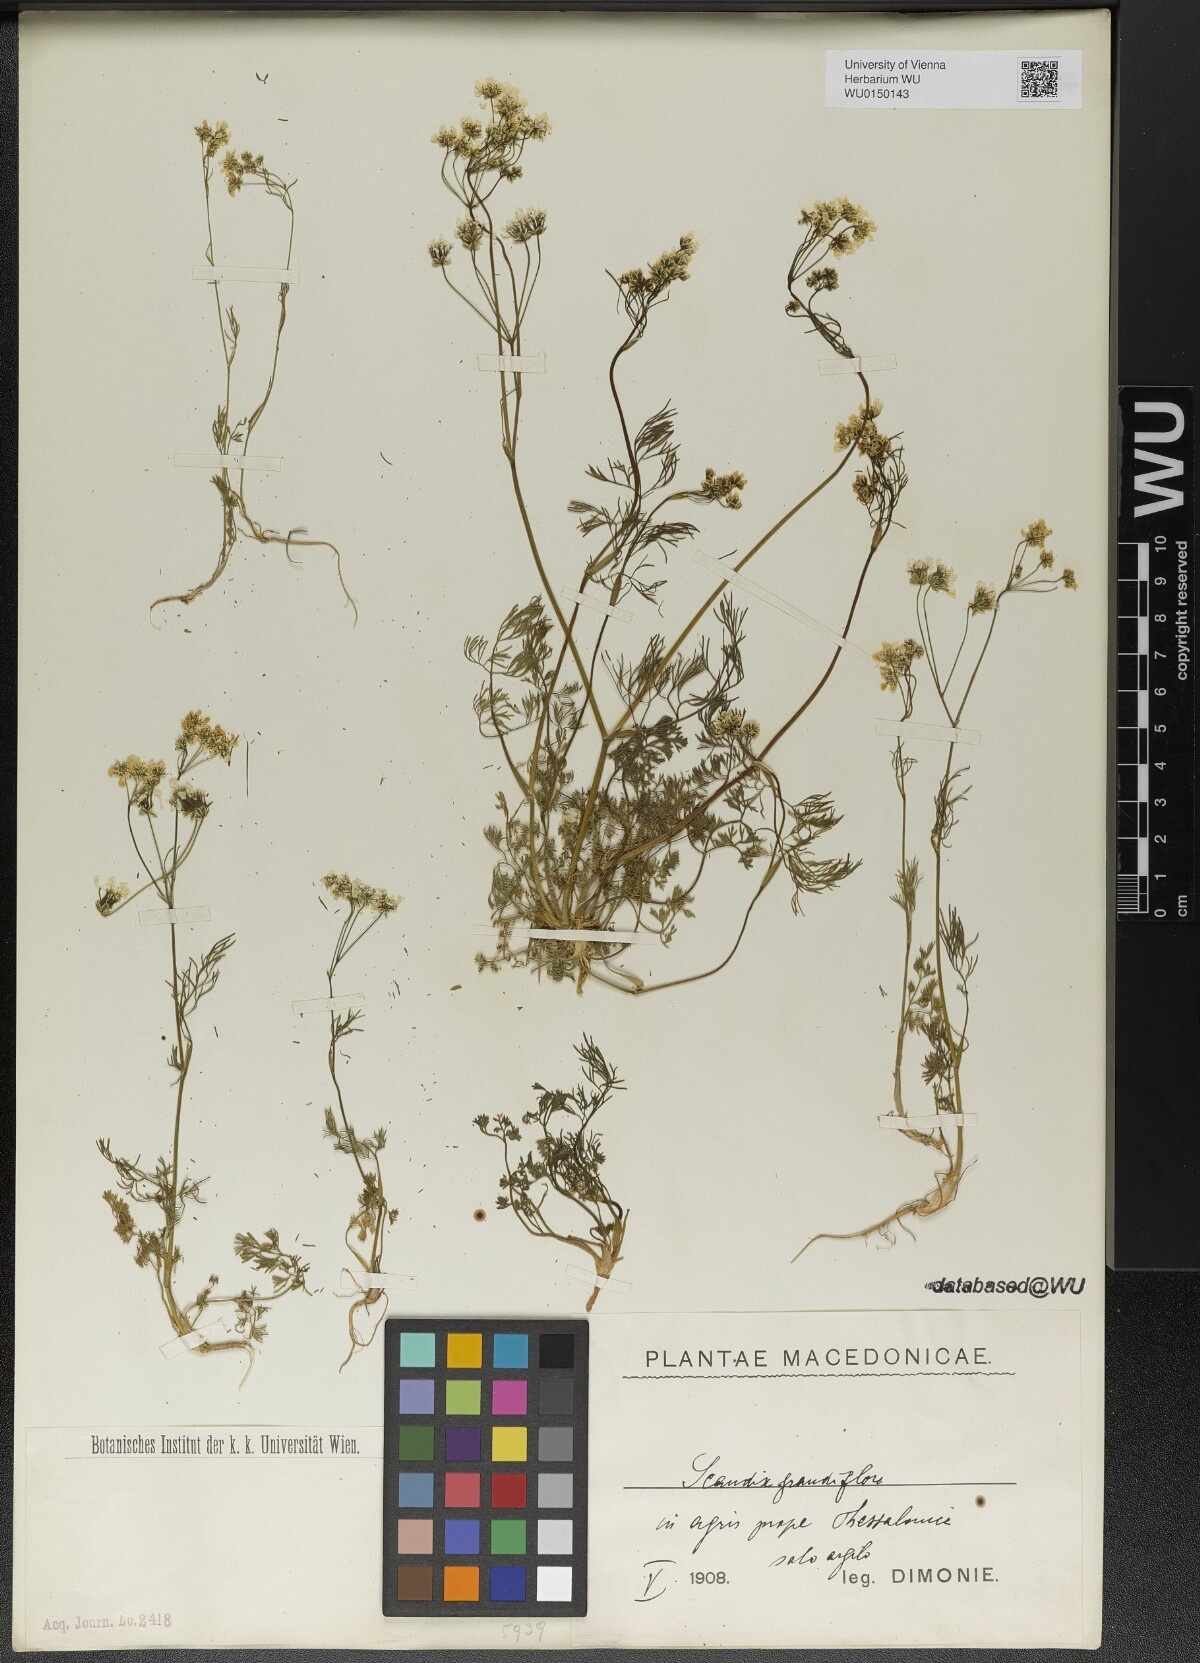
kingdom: Plantae
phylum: Tracheophyta
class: Magnoliopsida
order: Apiales
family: Apiaceae
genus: Scandix
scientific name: Scandix australis
